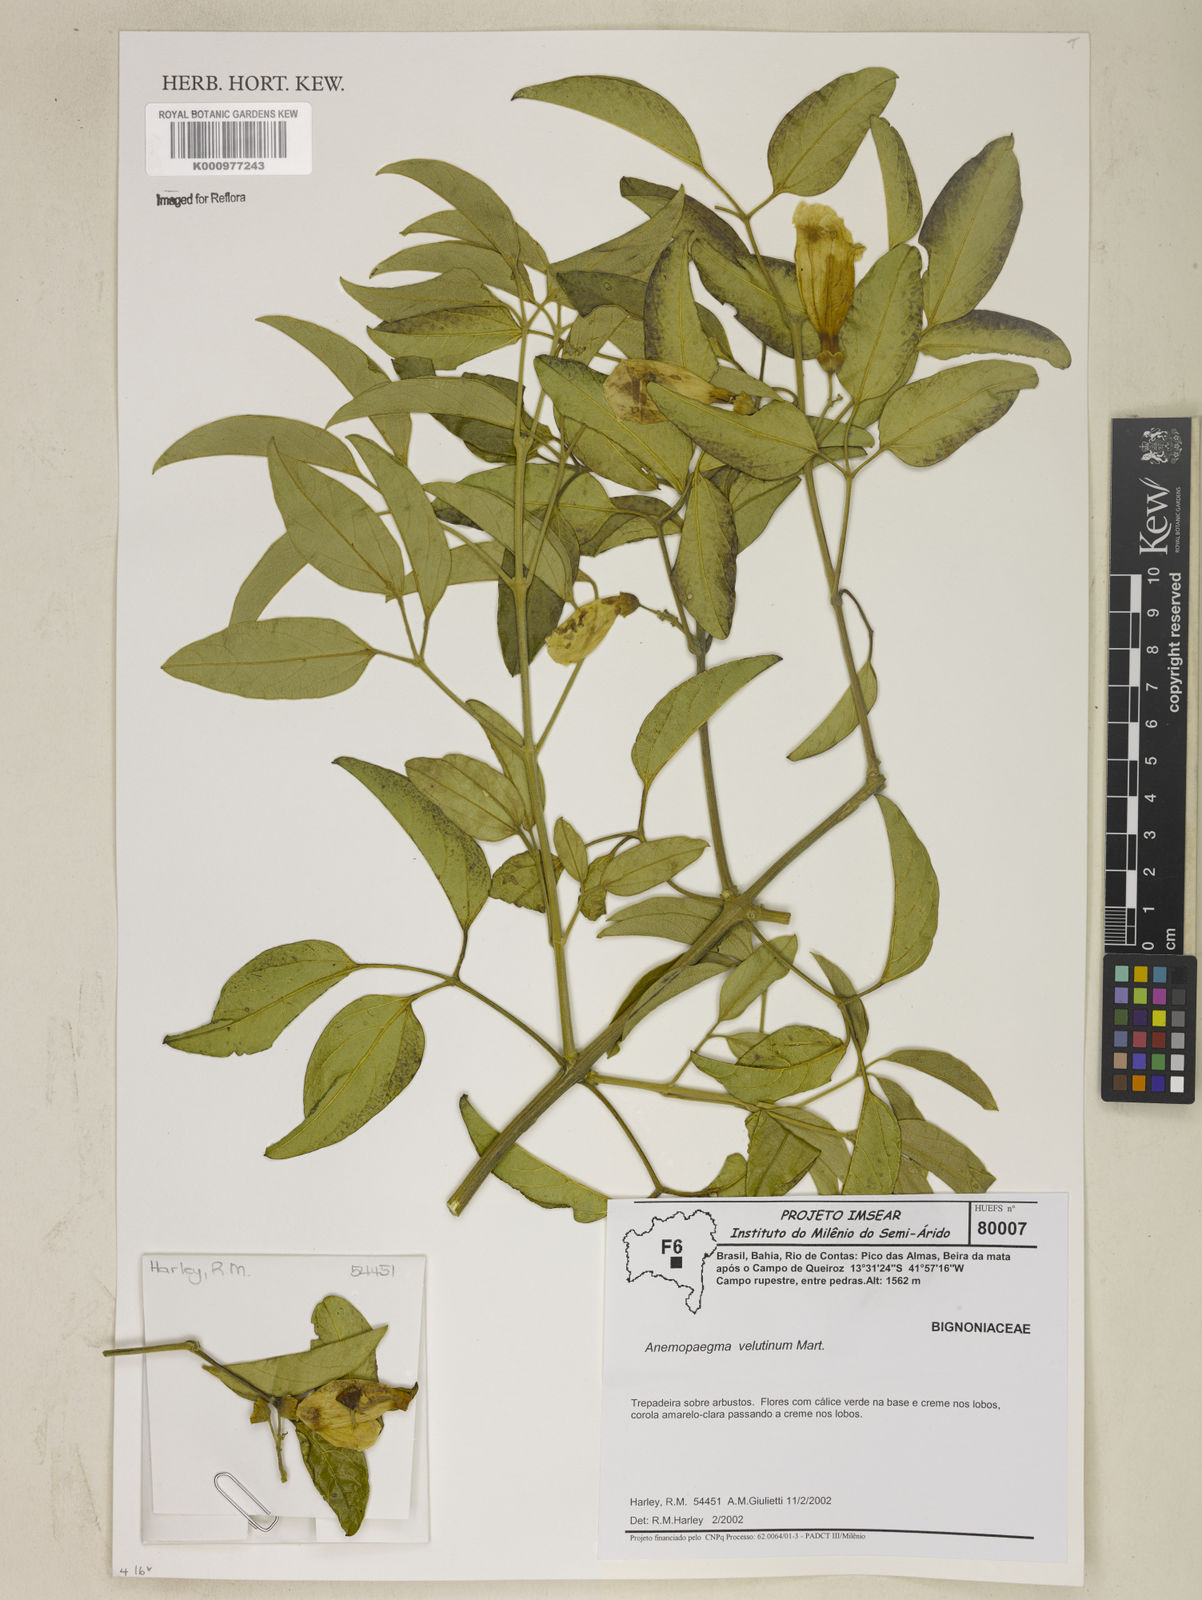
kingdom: Plantae
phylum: Tracheophyta
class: Magnoliopsida
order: Lamiales
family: Bignoniaceae
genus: Anemopaegma
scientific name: Anemopaegma velutinum
